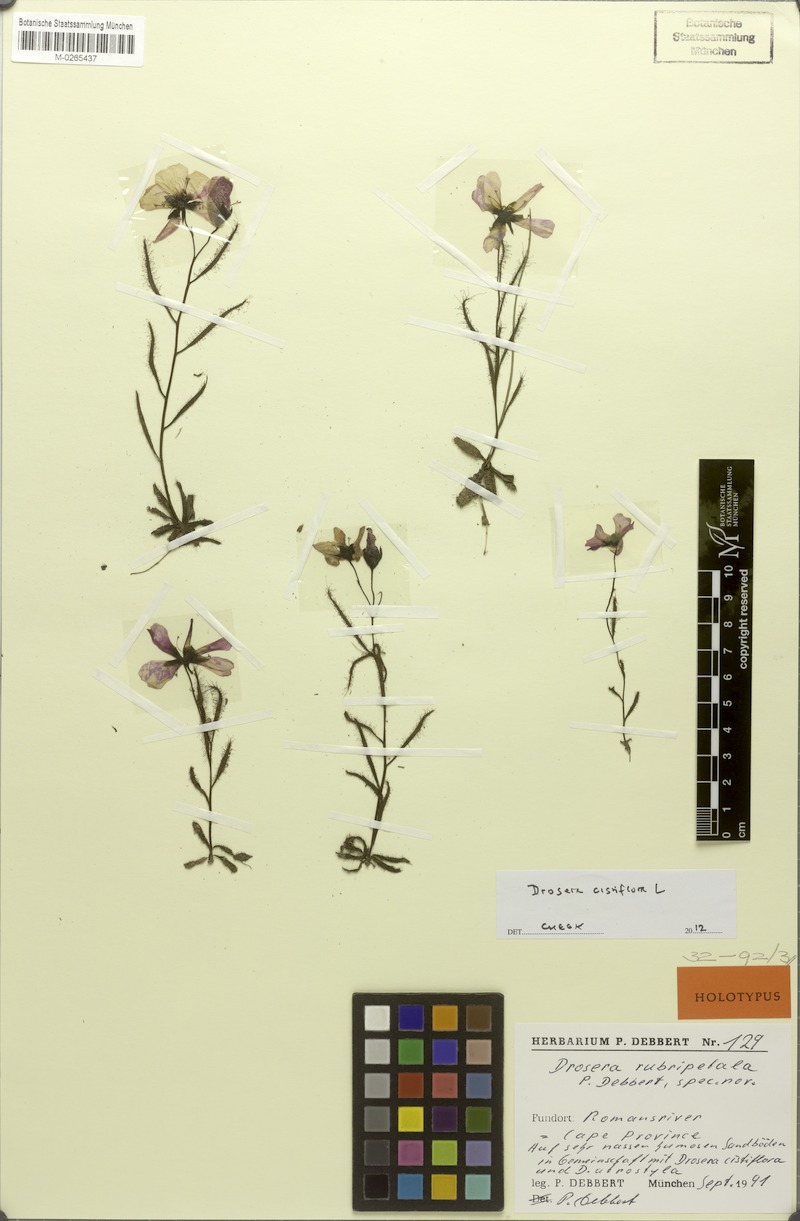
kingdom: Plantae
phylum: Tracheophyta
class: Magnoliopsida
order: Caryophyllales
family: Droseraceae
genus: Drosera
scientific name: Drosera cistiflora
